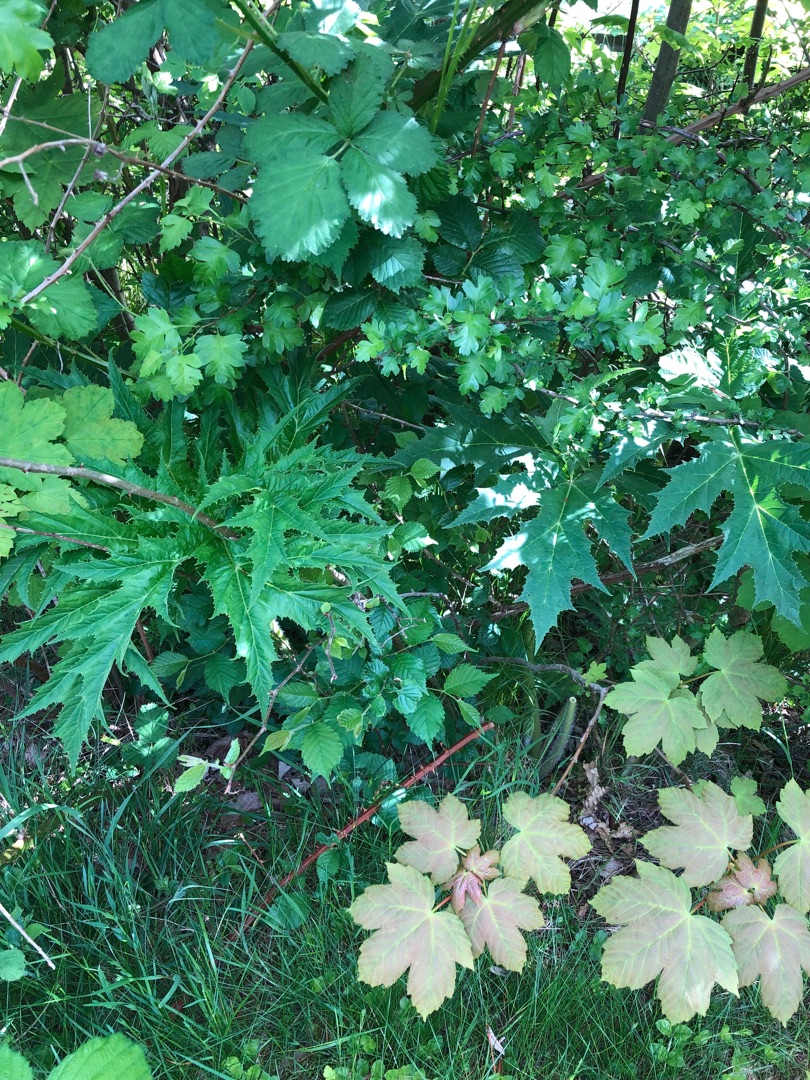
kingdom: Plantae
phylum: Tracheophyta
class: Magnoliopsida
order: Apiales
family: Apiaceae
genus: Heracleum
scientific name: Heracleum mantegazzianum
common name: Kæmpe-bjørneklo
